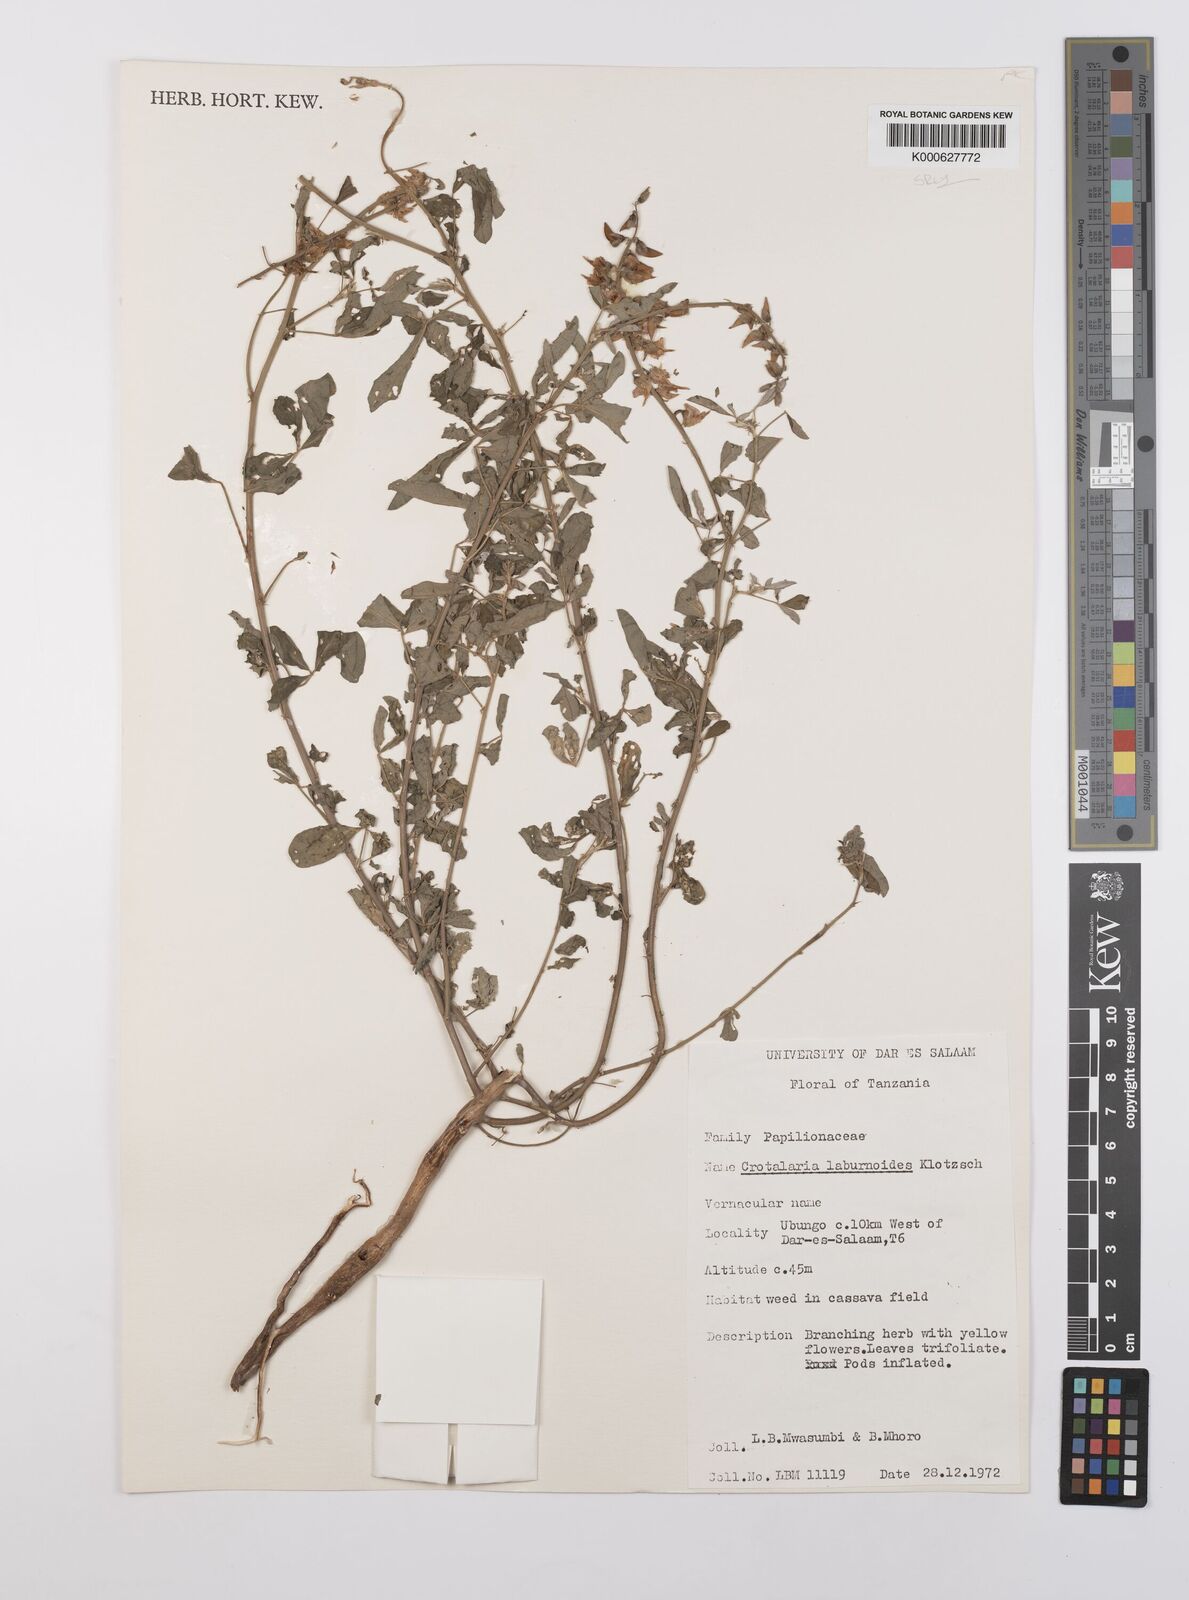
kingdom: Plantae
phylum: Tracheophyta
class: Magnoliopsida
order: Fabales
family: Fabaceae
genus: Crotalaria
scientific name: Crotalaria laburnoides
